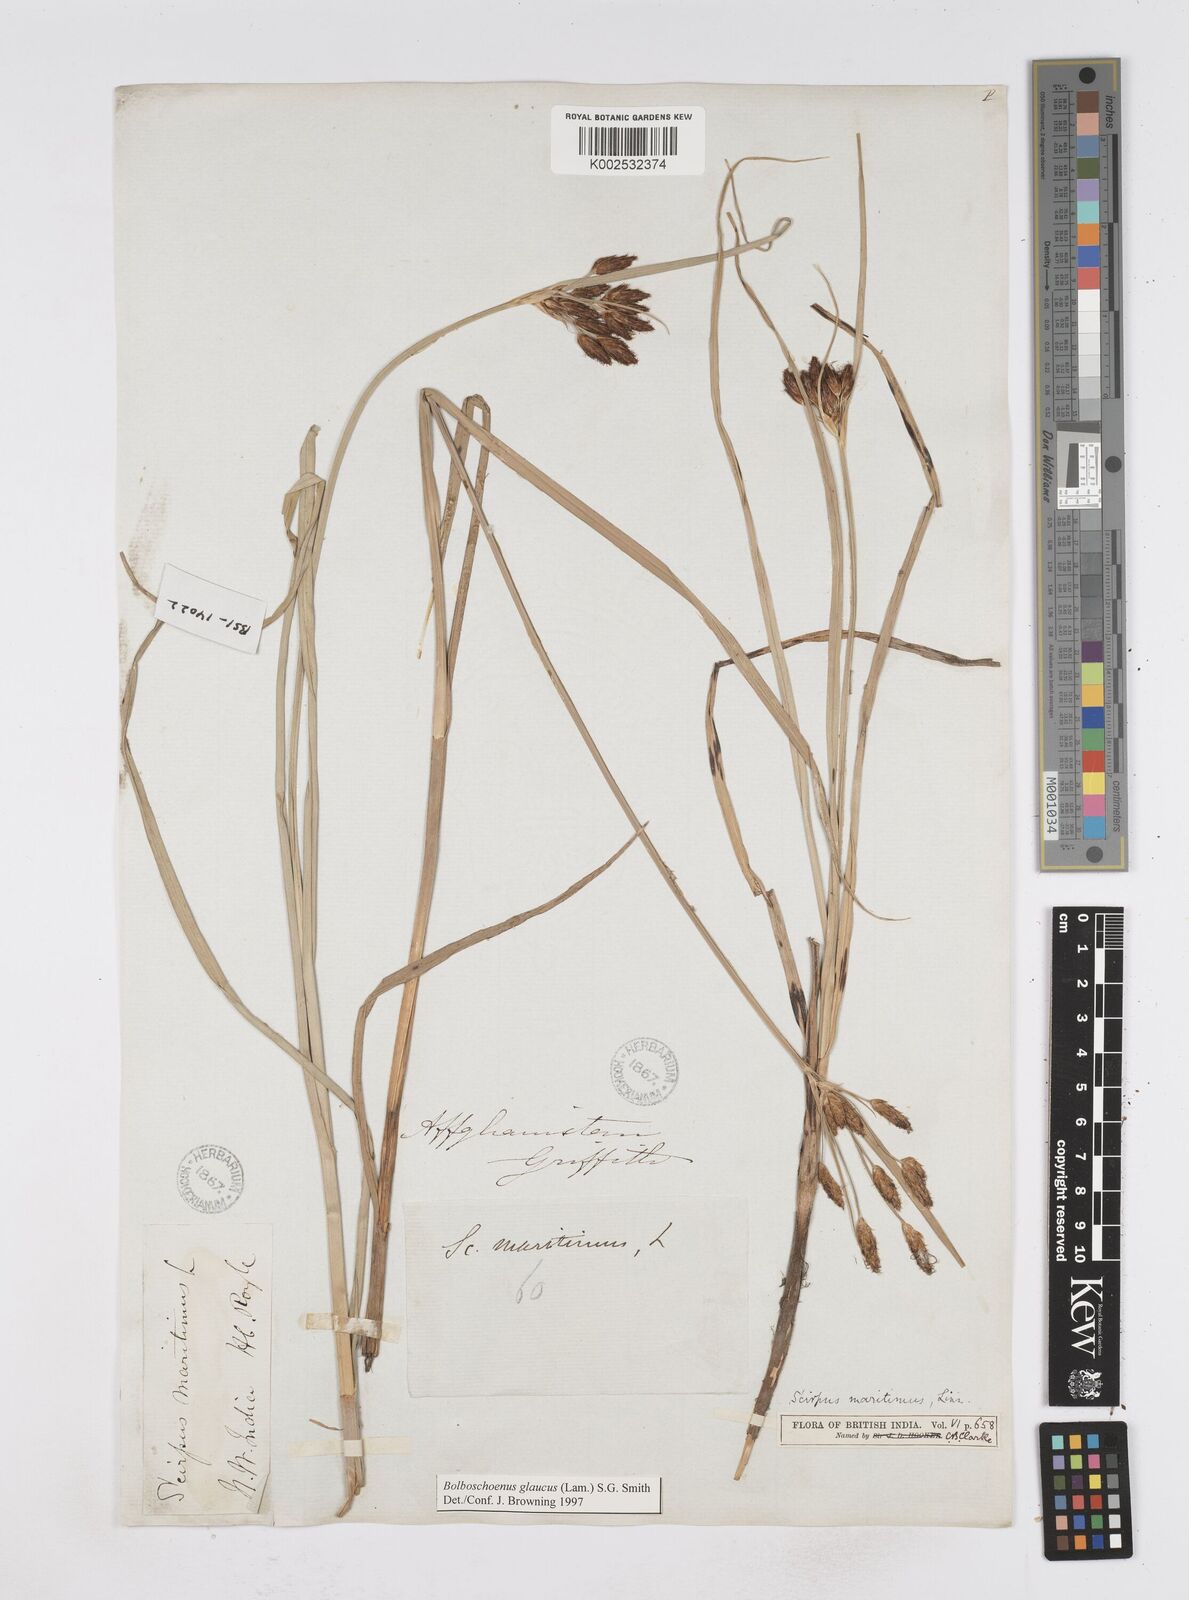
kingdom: Plantae
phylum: Tracheophyta
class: Liliopsida
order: Poales
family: Cyperaceae
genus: Bolboschoenus
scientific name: Bolboschoenus maritimus
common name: Sea club-rush
